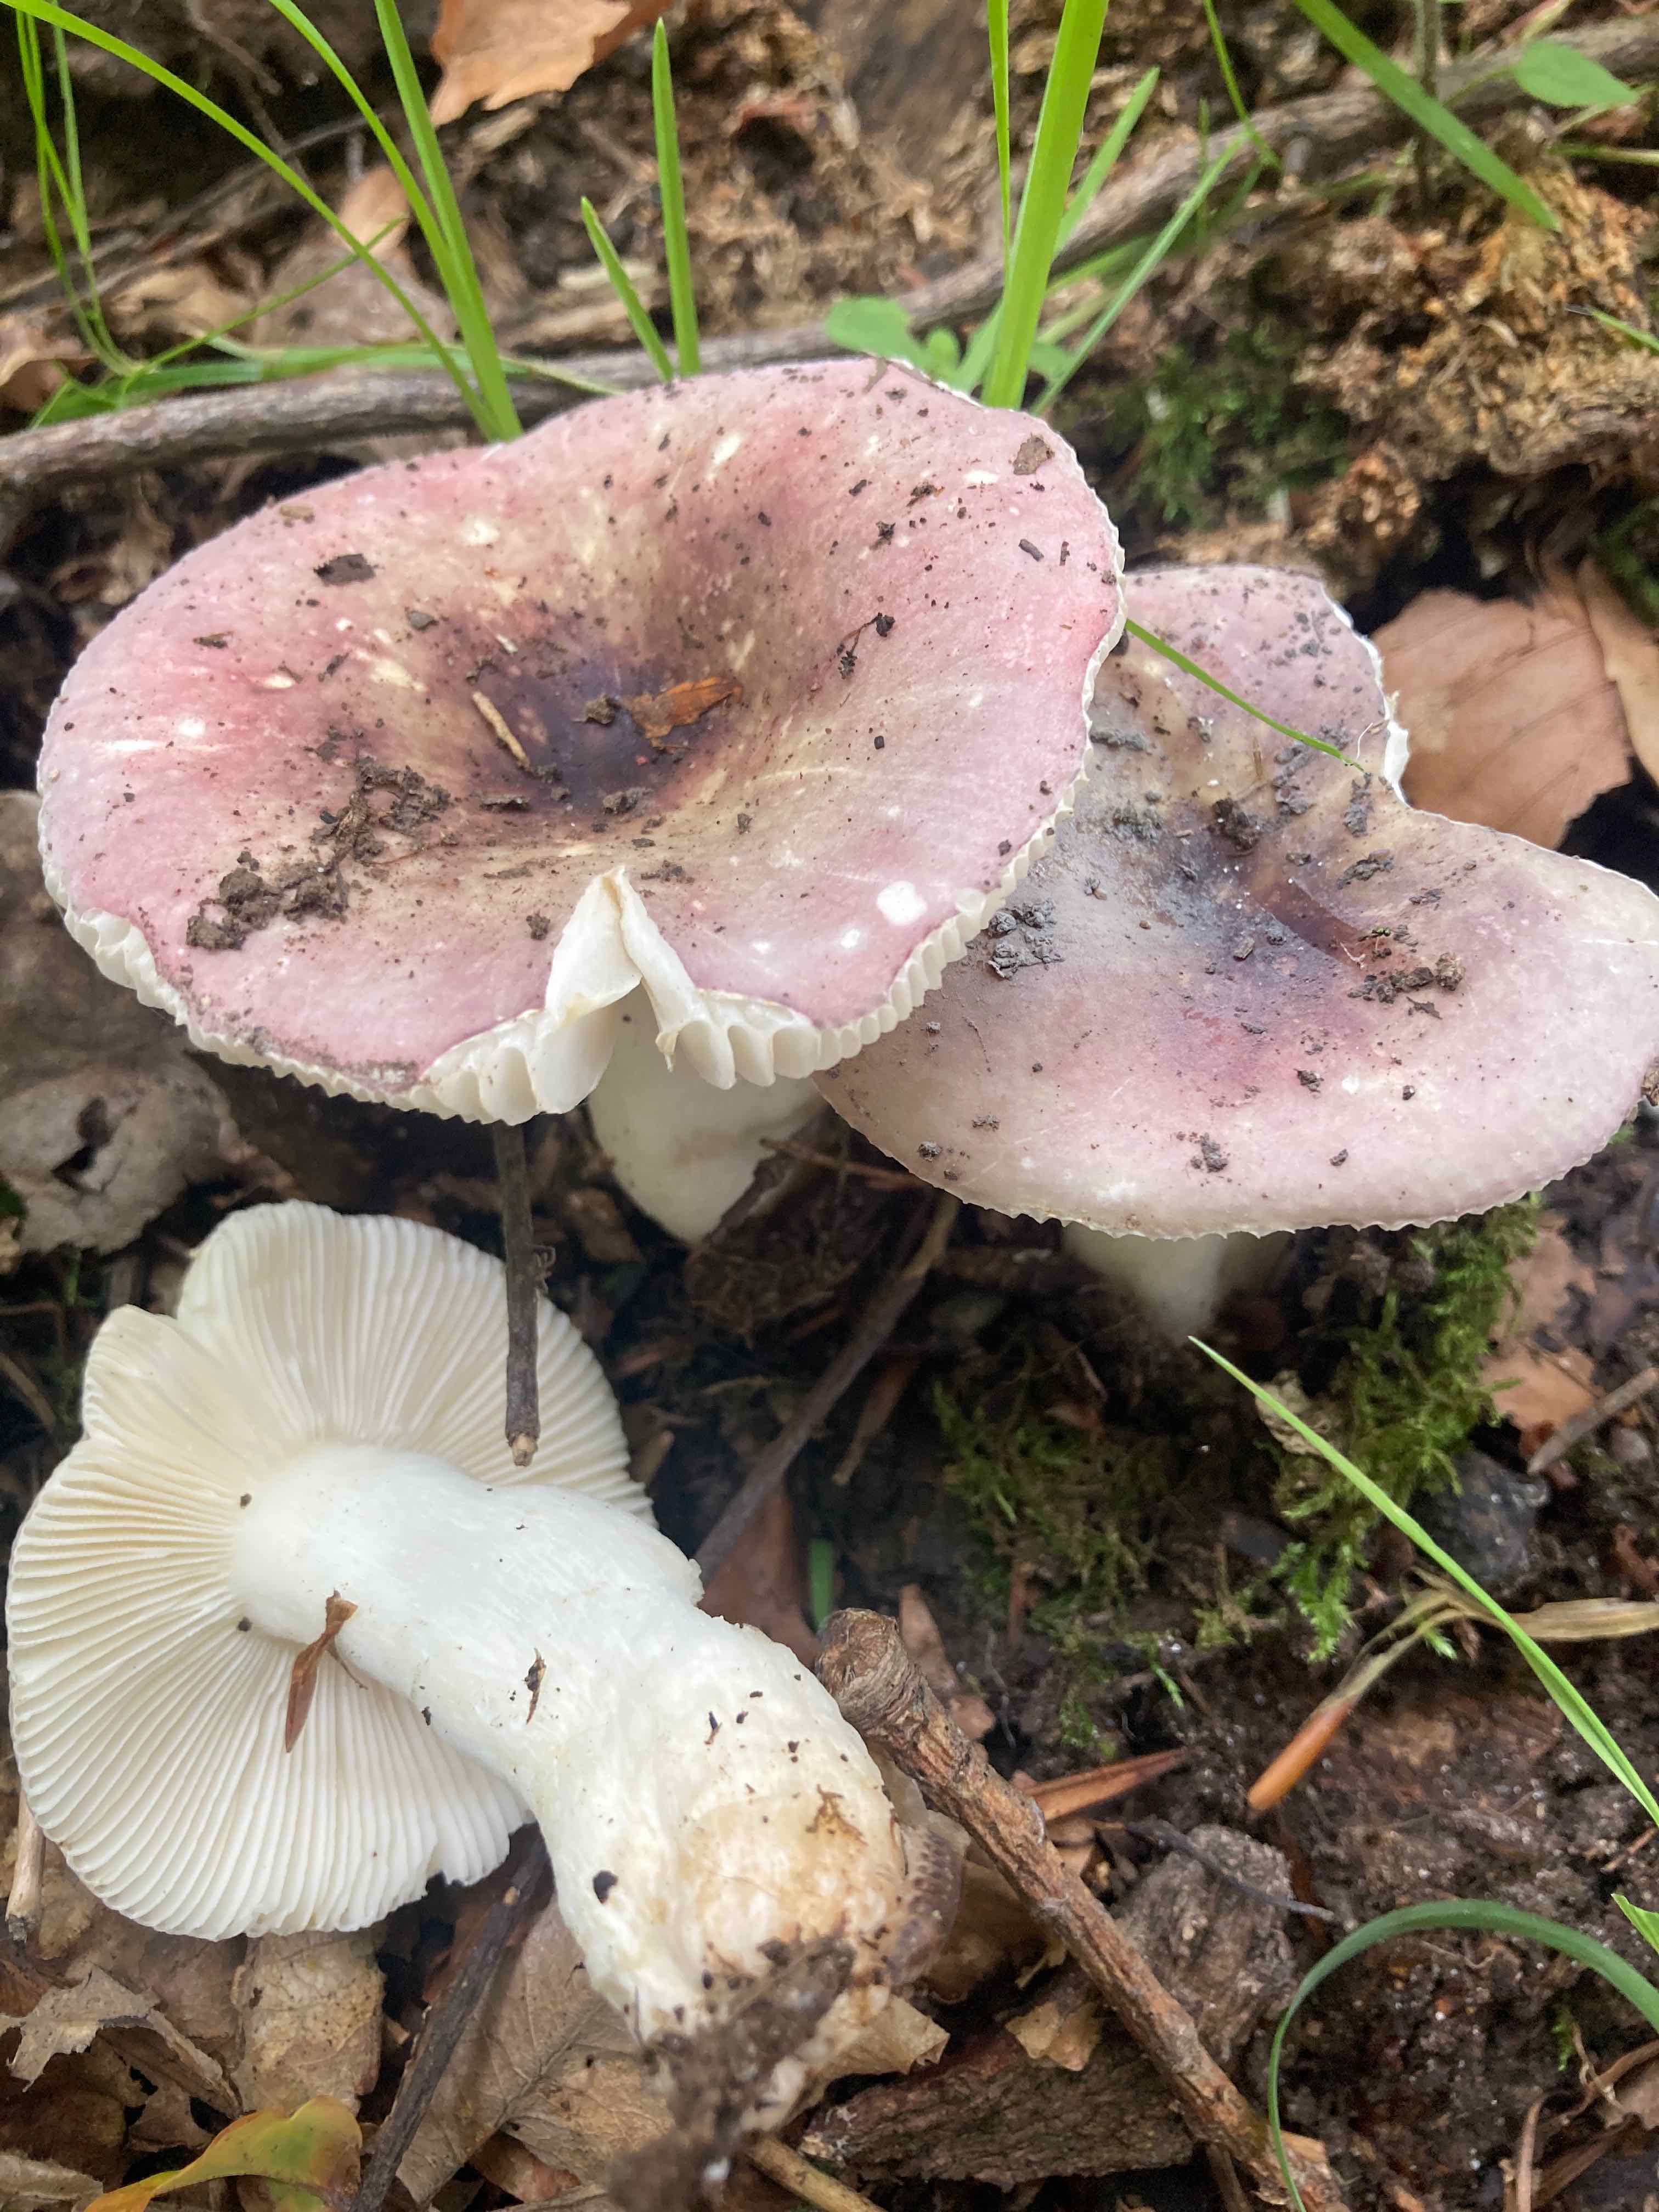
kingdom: Fungi
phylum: Basidiomycota
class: Agaricomycetes
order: Russulales
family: Russulaceae
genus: Russula
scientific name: Russula fragilis
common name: savbladet skørhat
